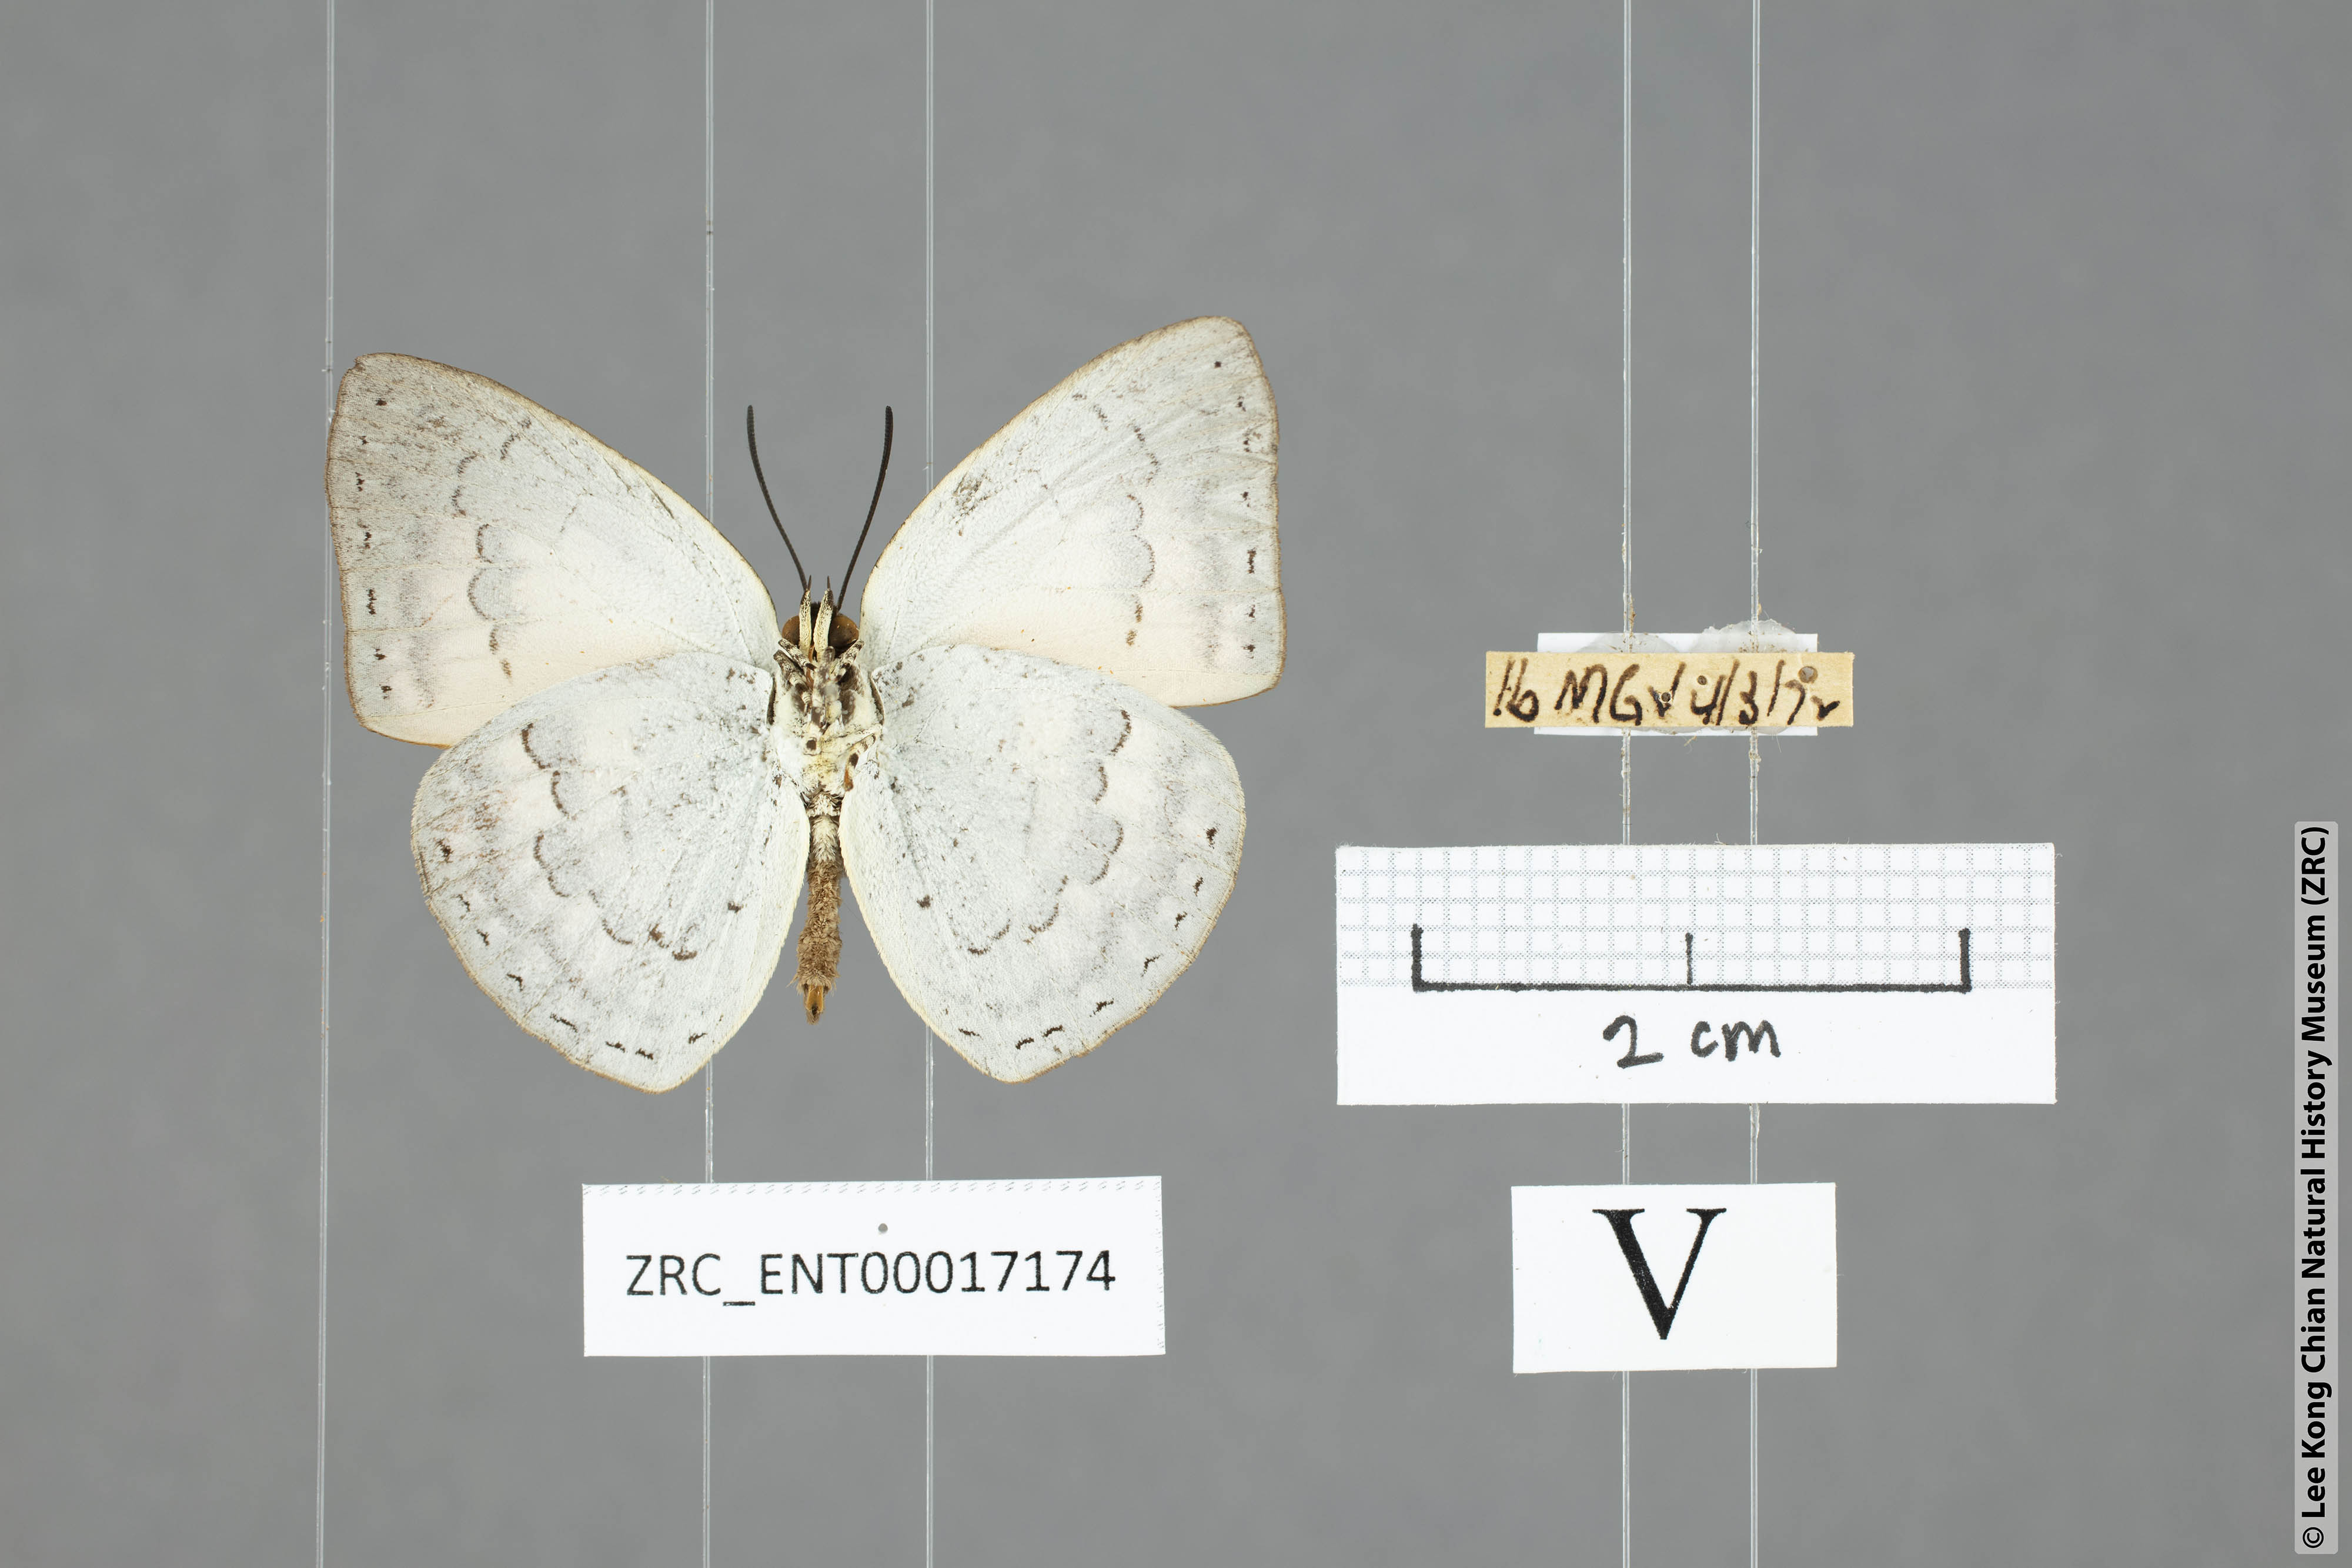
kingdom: Animalia
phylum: Arthropoda
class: Insecta
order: Lepidoptera
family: Lycaenidae
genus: Curetis
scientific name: Curetis tagalica
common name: Southern sunbeam
